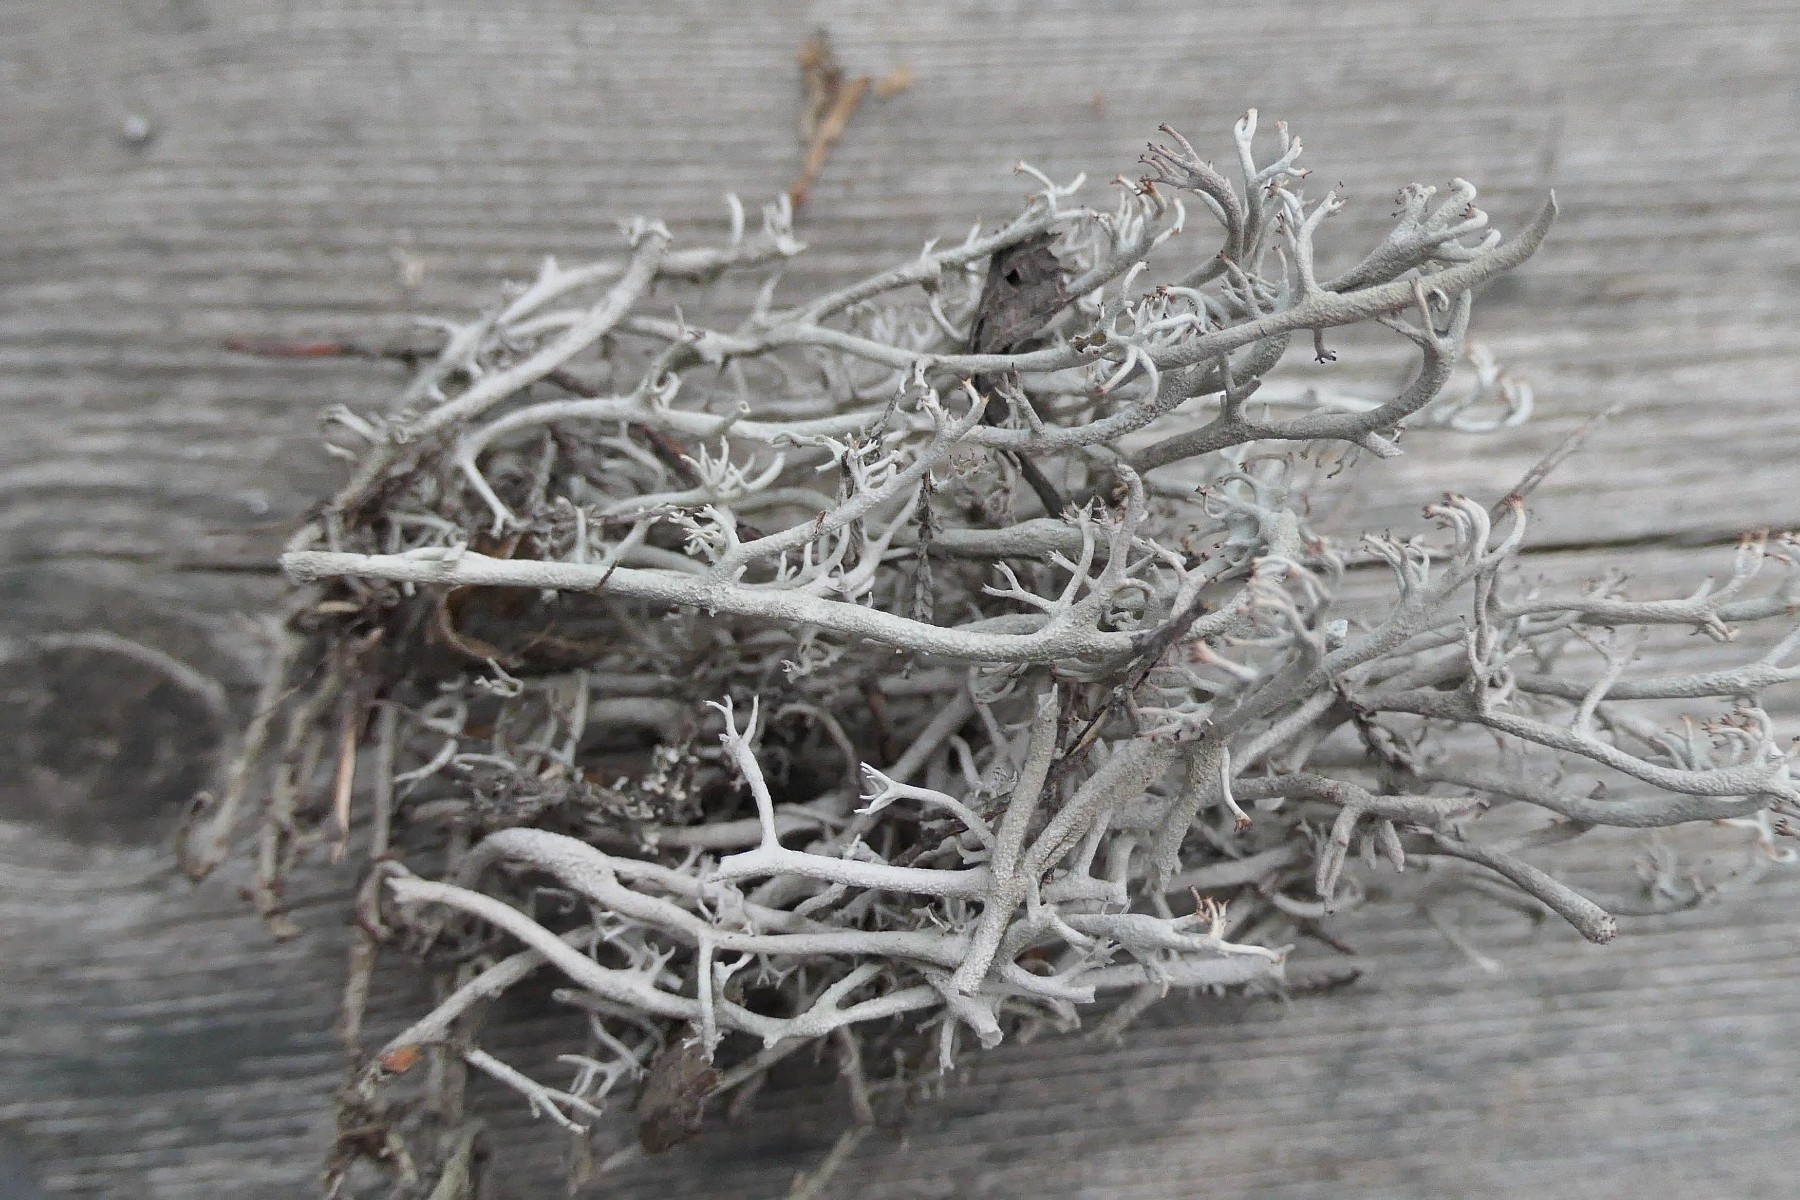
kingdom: Fungi
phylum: Ascomycota
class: Lecanoromycetes
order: Lecanorales
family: Cladoniaceae
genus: Cladonia
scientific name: Cladonia rangiferina
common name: askegrå rensdyrlav
